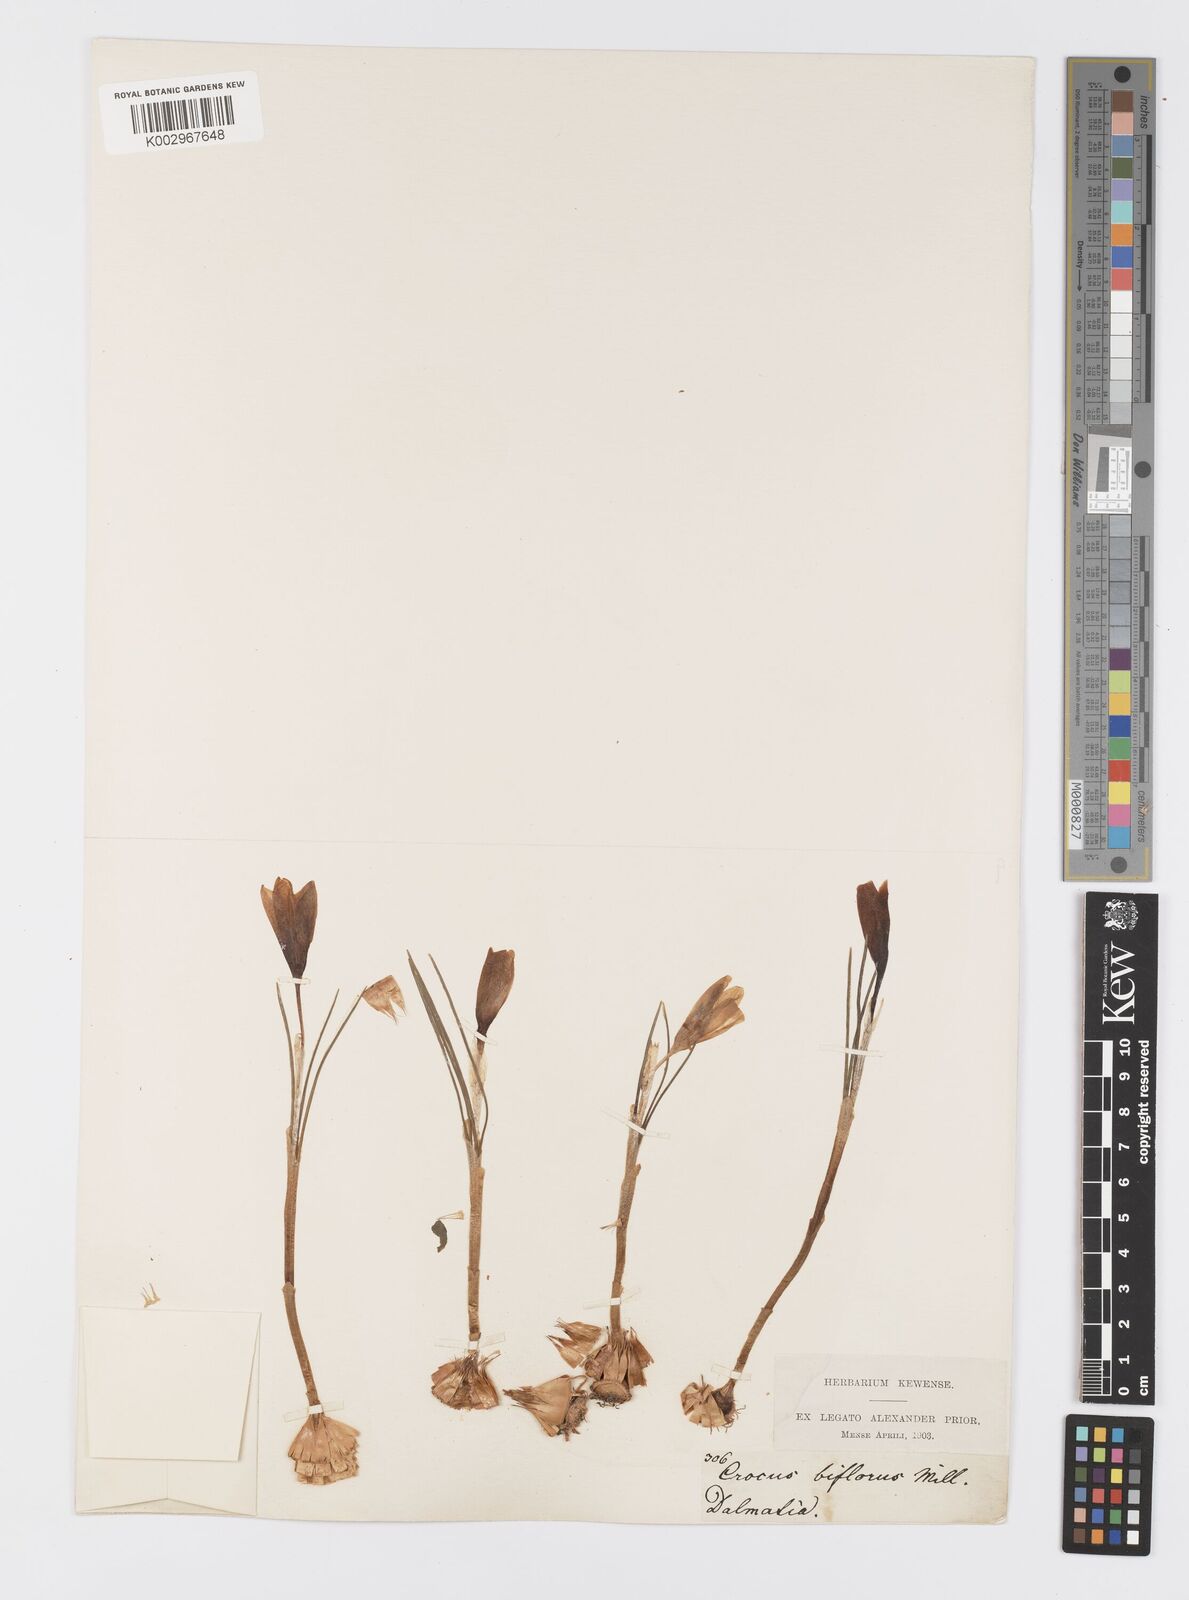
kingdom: Plantae
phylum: Tracheophyta
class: Liliopsida
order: Asparagales
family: Iridaceae
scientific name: Iridaceae
